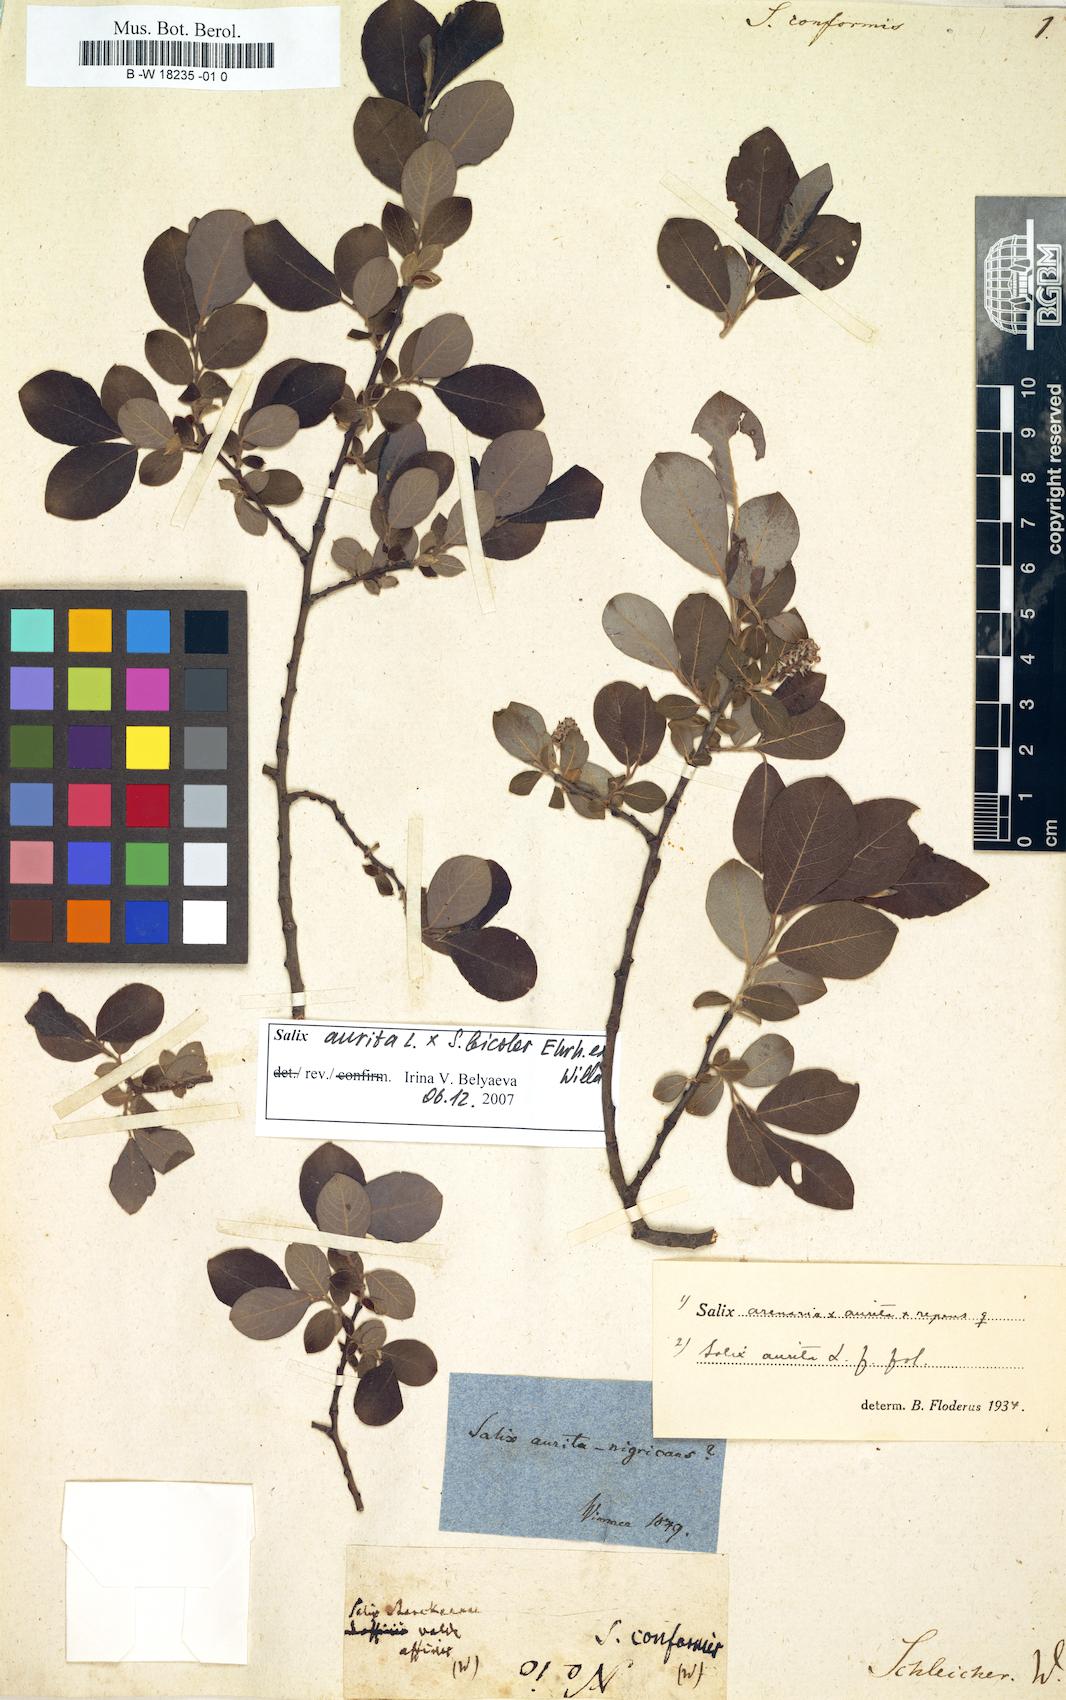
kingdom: Plantae
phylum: Tracheophyta
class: Magnoliopsida
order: Malpighiales
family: Salicaceae
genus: Salix
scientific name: Salix
